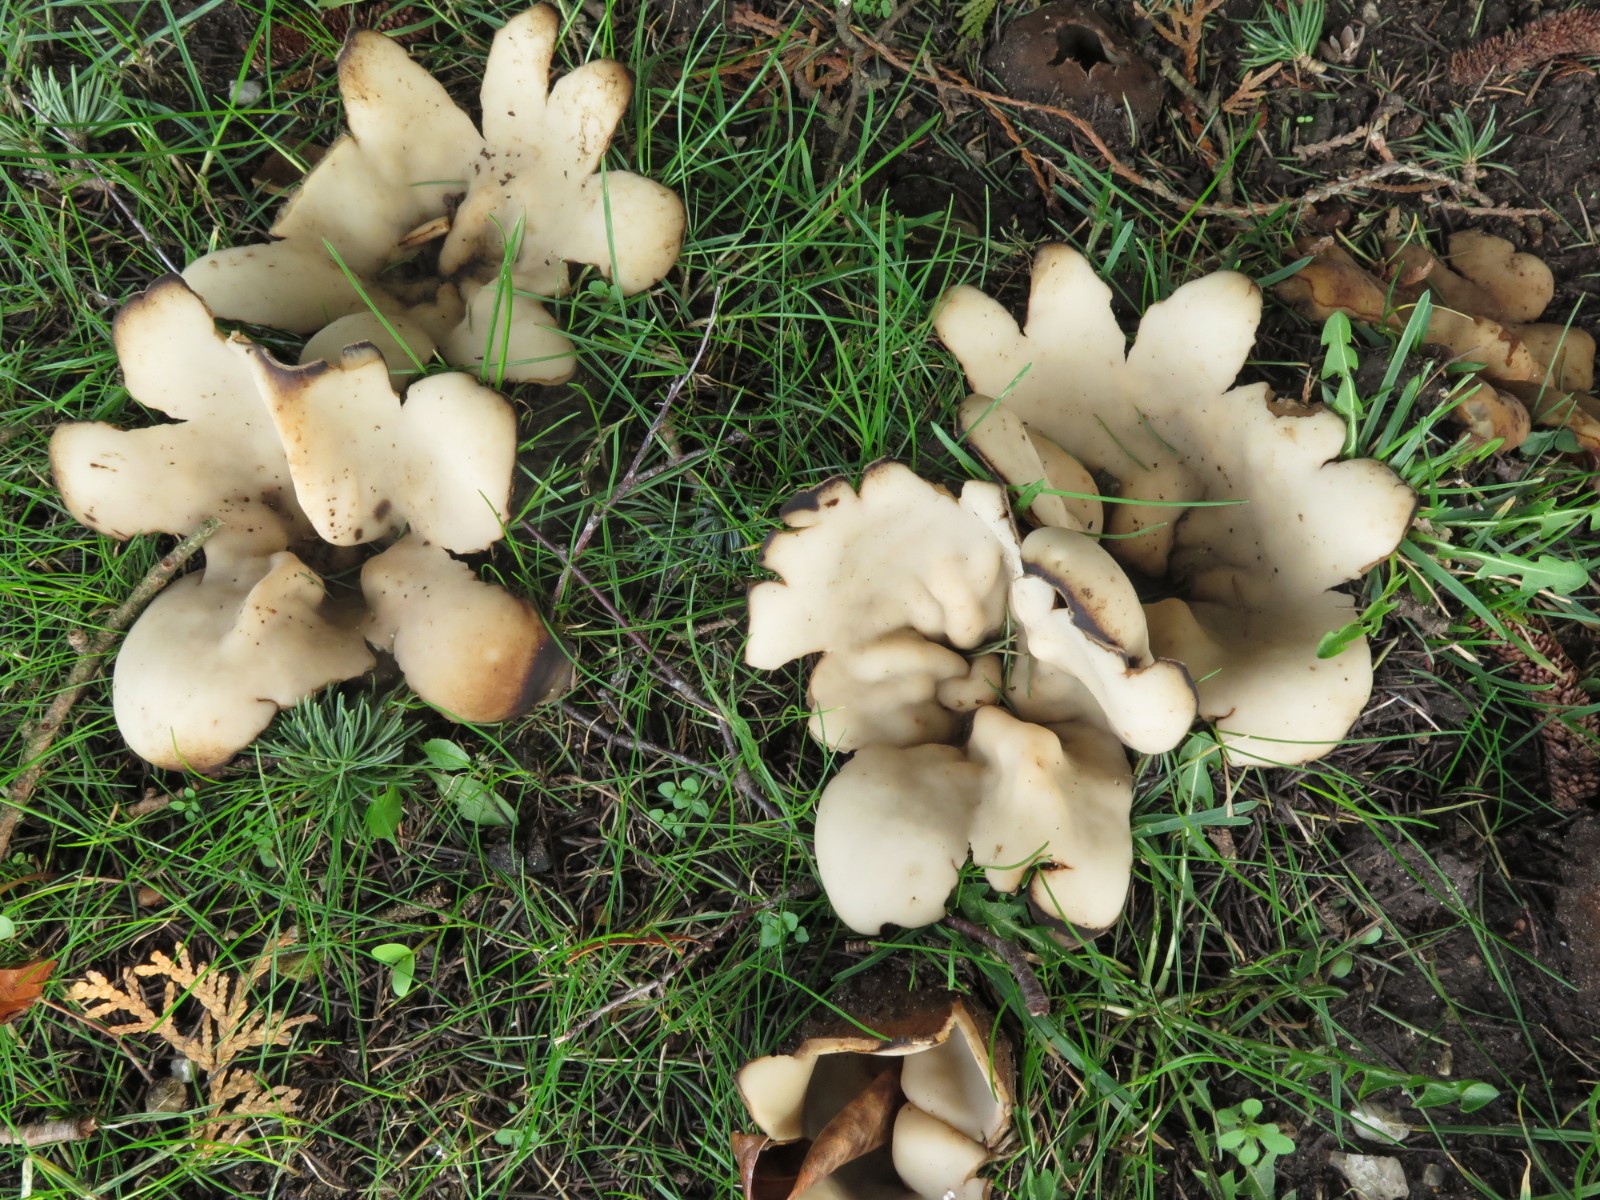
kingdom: Fungi
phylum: Ascomycota
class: Pezizomycetes
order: Pezizales
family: Pyronemataceae
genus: Geopora
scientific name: Geopora sumneriana
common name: vår-jordbæger
